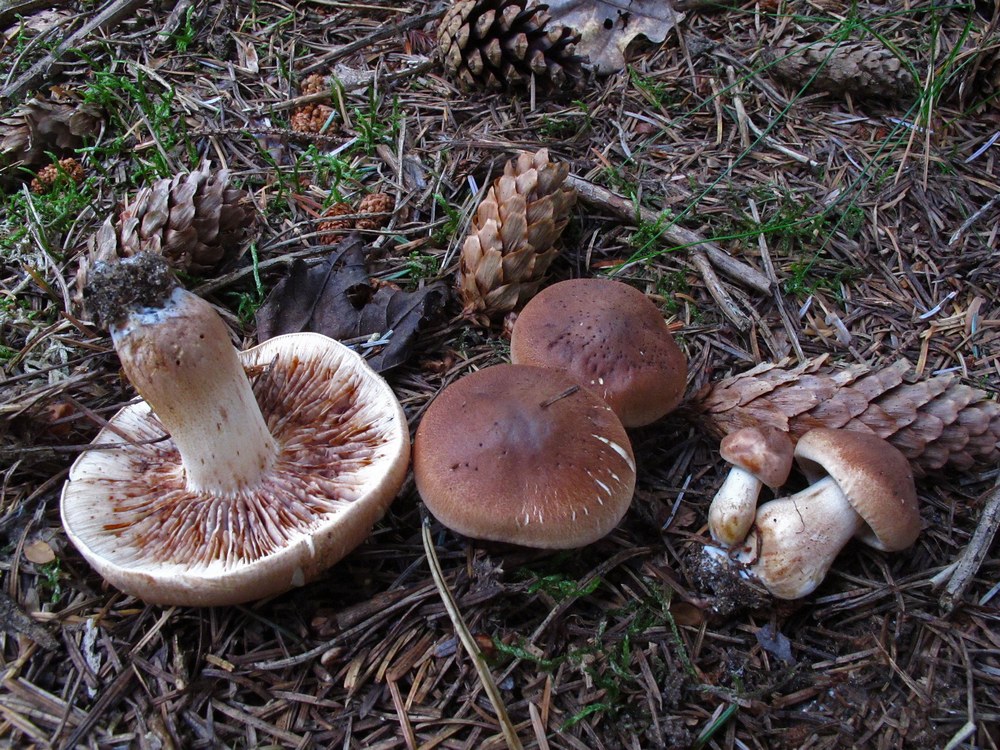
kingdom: Fungi
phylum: Basidiomycota
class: Agaricomycetes
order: Agaricales
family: Tricholomataceae
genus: Tricholoma
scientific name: Tricholoma imbricatum
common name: skællet ridderhat
